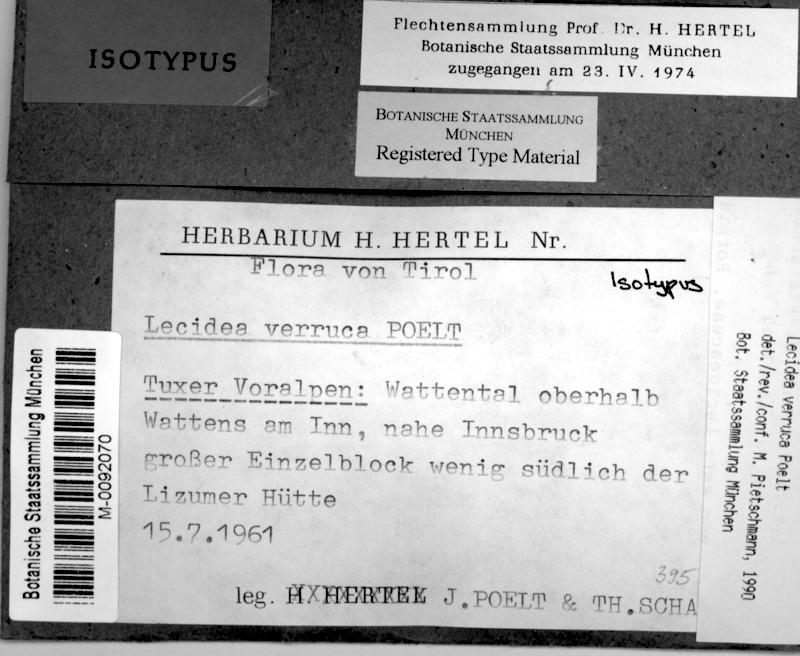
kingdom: Fungi
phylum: Ascomycota
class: Lecanoromycetes
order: Lecideales
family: Lecideaceae
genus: Lecidea
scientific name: Lecidea verruca
